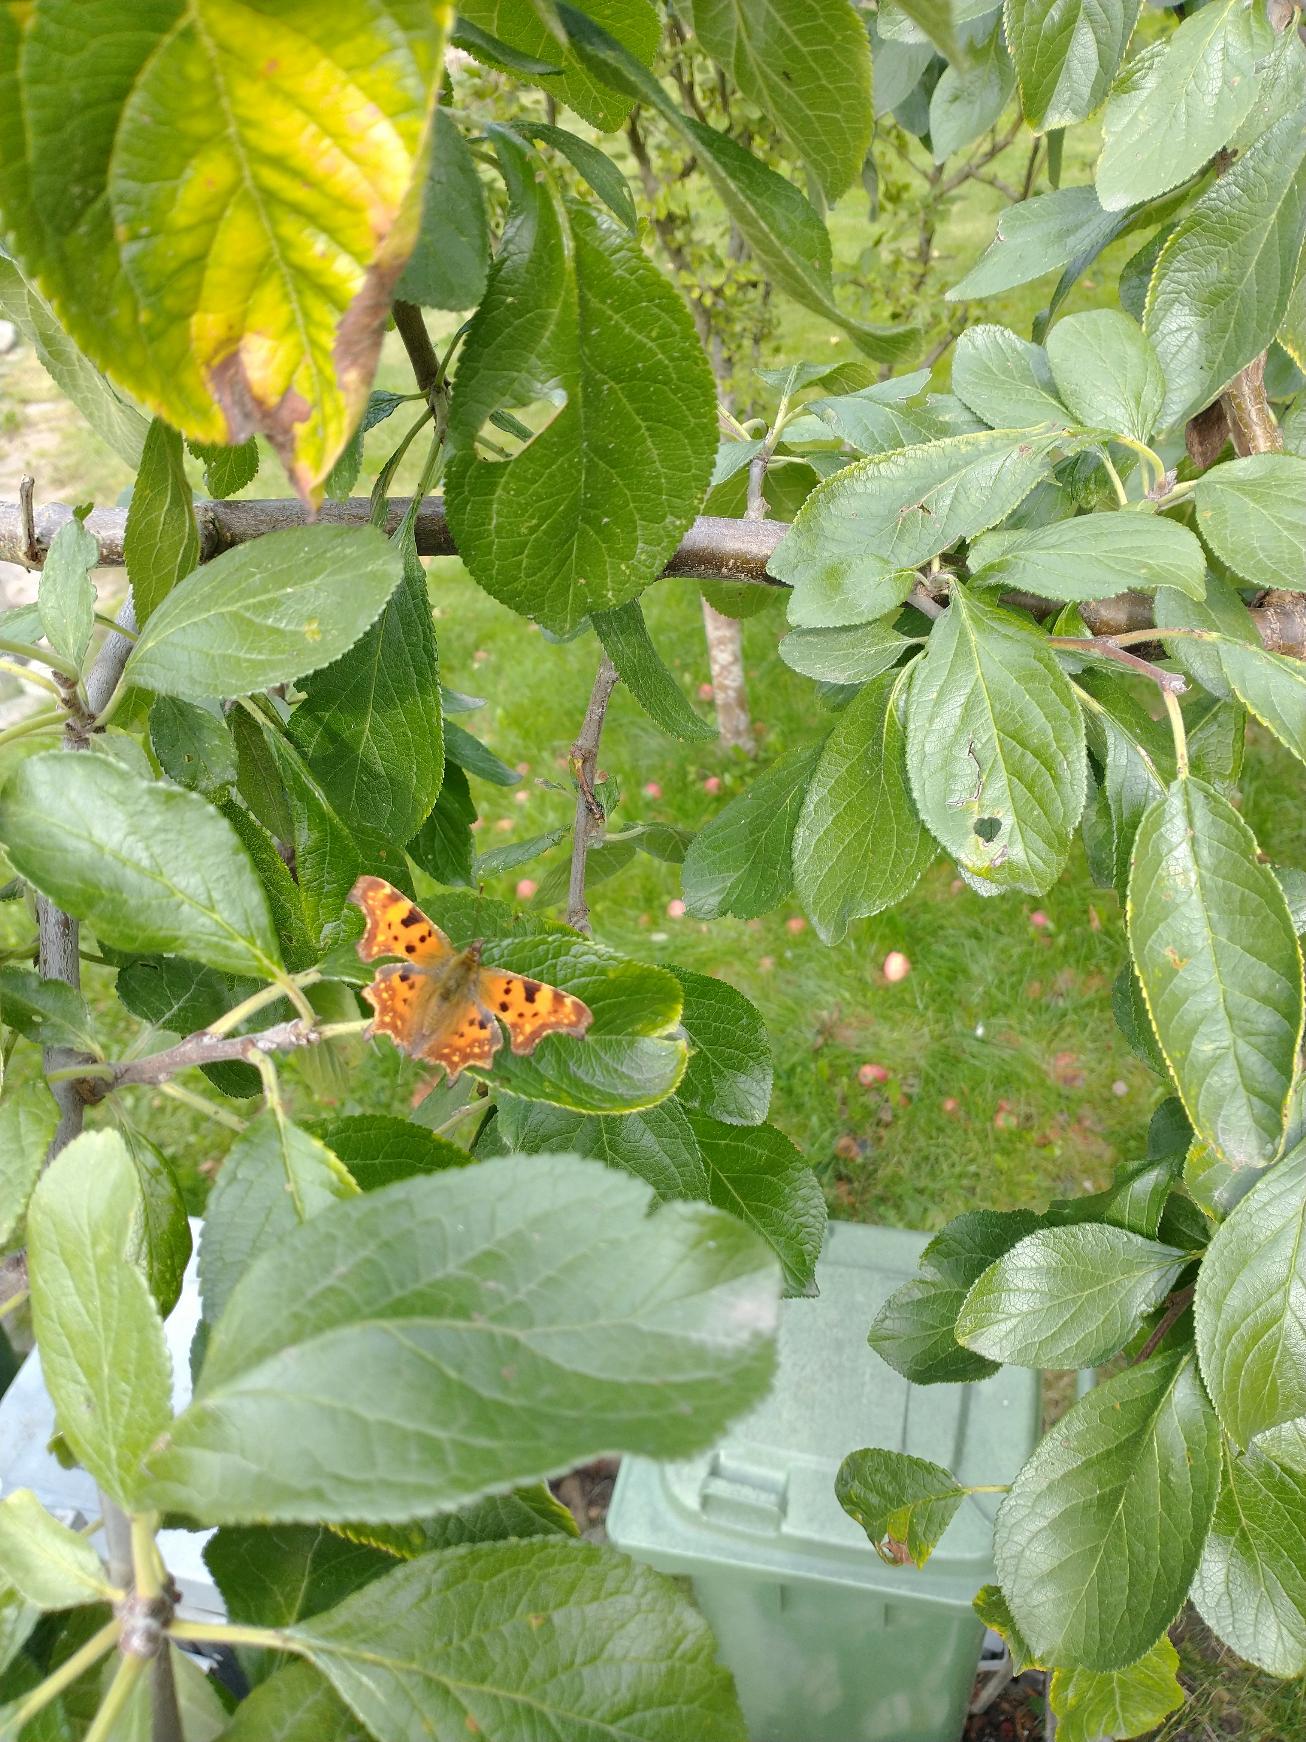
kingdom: Animalia
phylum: Arthropoda
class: Insecta
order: Lepidoptera
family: Nymphalidae
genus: Polygonia
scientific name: Polygonia c-album
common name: Det hvide C
